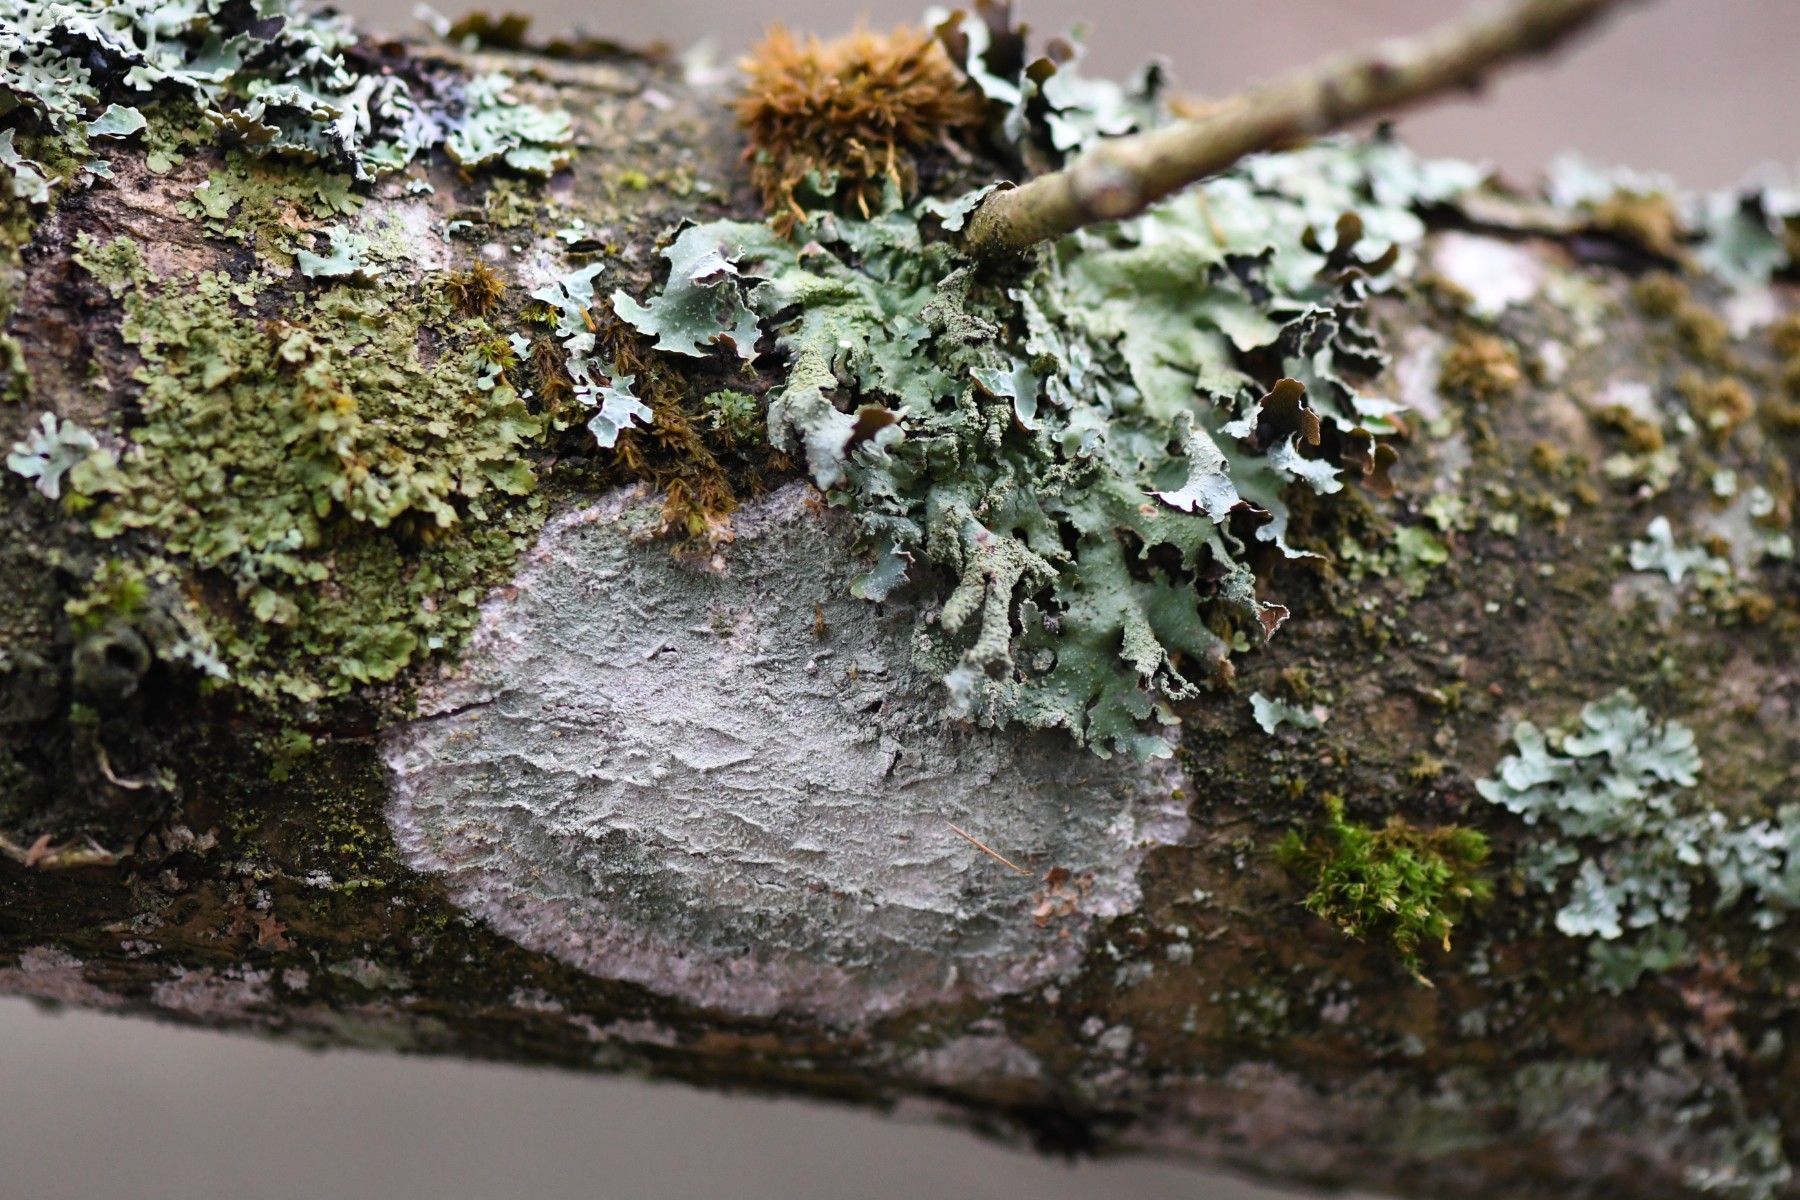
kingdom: Fungi
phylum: Ascomycota
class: Lecanoromycetes
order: Lecanorales
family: Parmeliaceae
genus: Parmelia
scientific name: Parmelia submontana
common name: langlobet skållav
